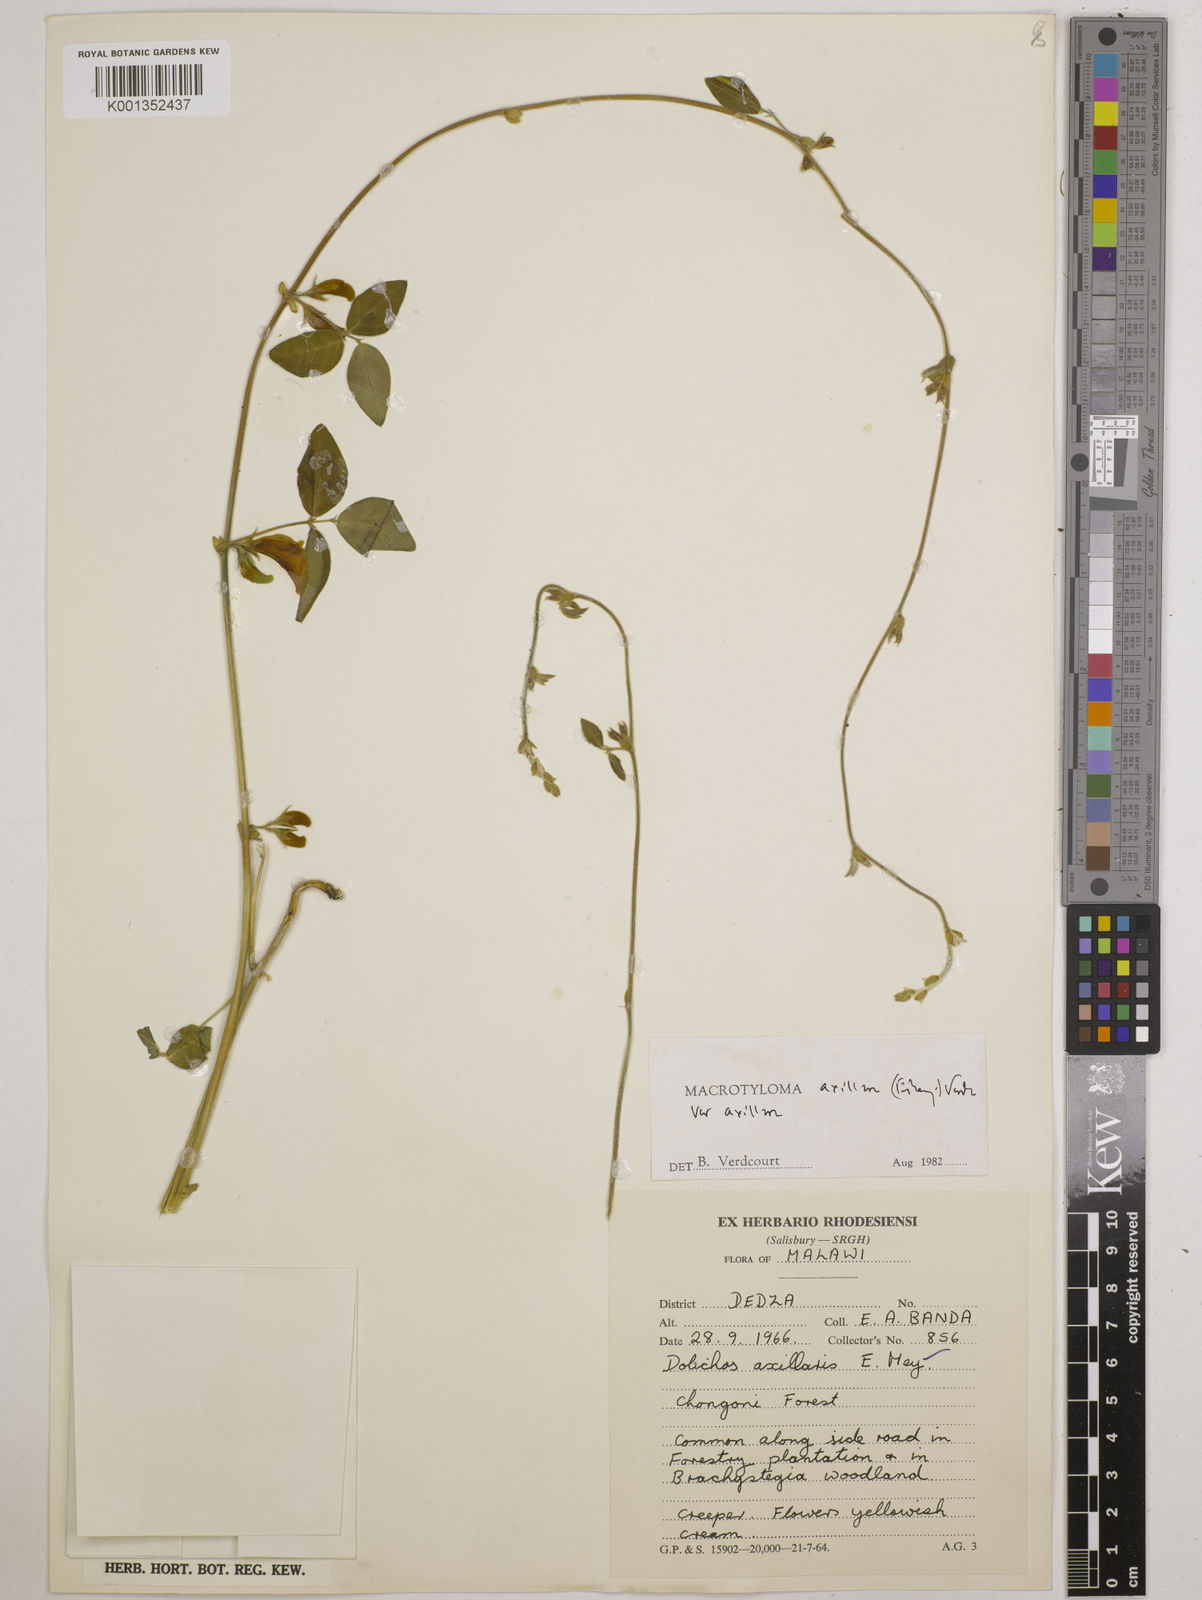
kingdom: Plantae
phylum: Tracheophyta
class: Magnoliopsida
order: Fabales
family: Fabaceae
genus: Macrotyloma
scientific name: Macrotyloma axillare
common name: Perennial horsegram
